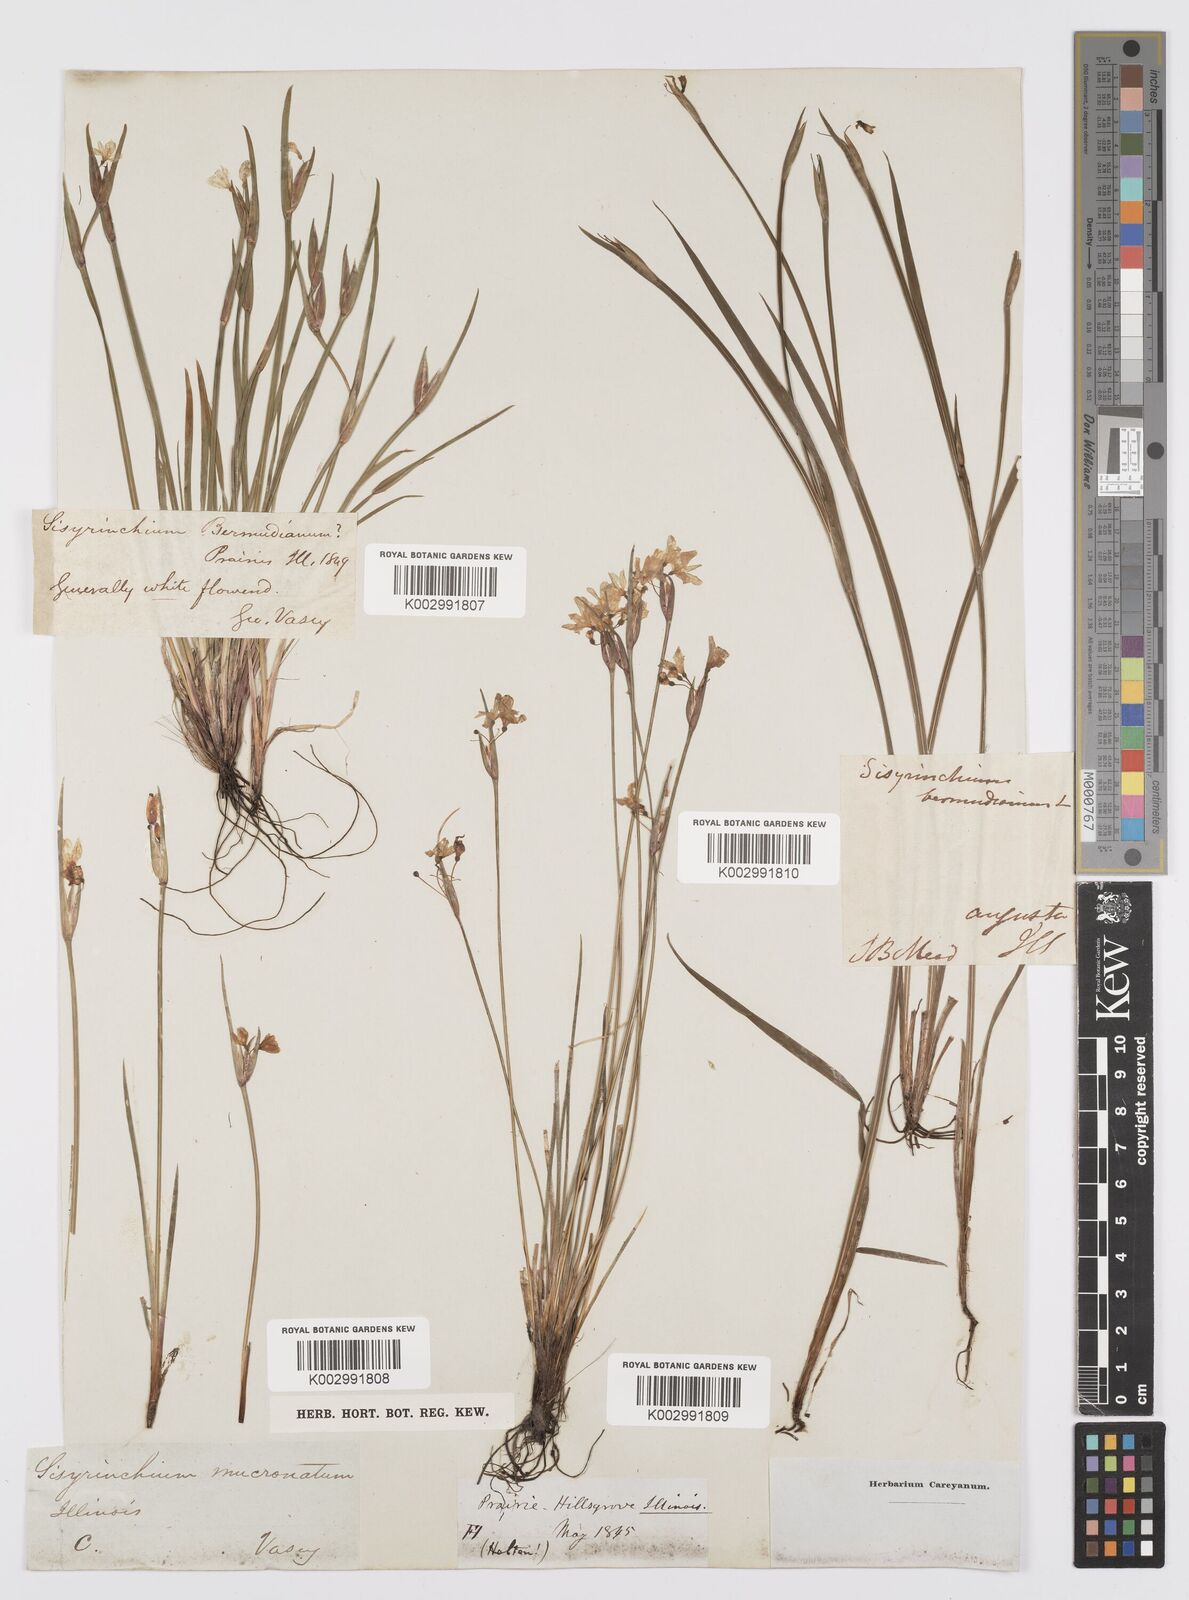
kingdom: Plantae
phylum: Tracheophyta
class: Liliopsida
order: Asparagales
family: Iridaceae
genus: Sisyrinchium
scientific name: Sisyrinchium bermudiana
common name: Blue-eyed-grass
